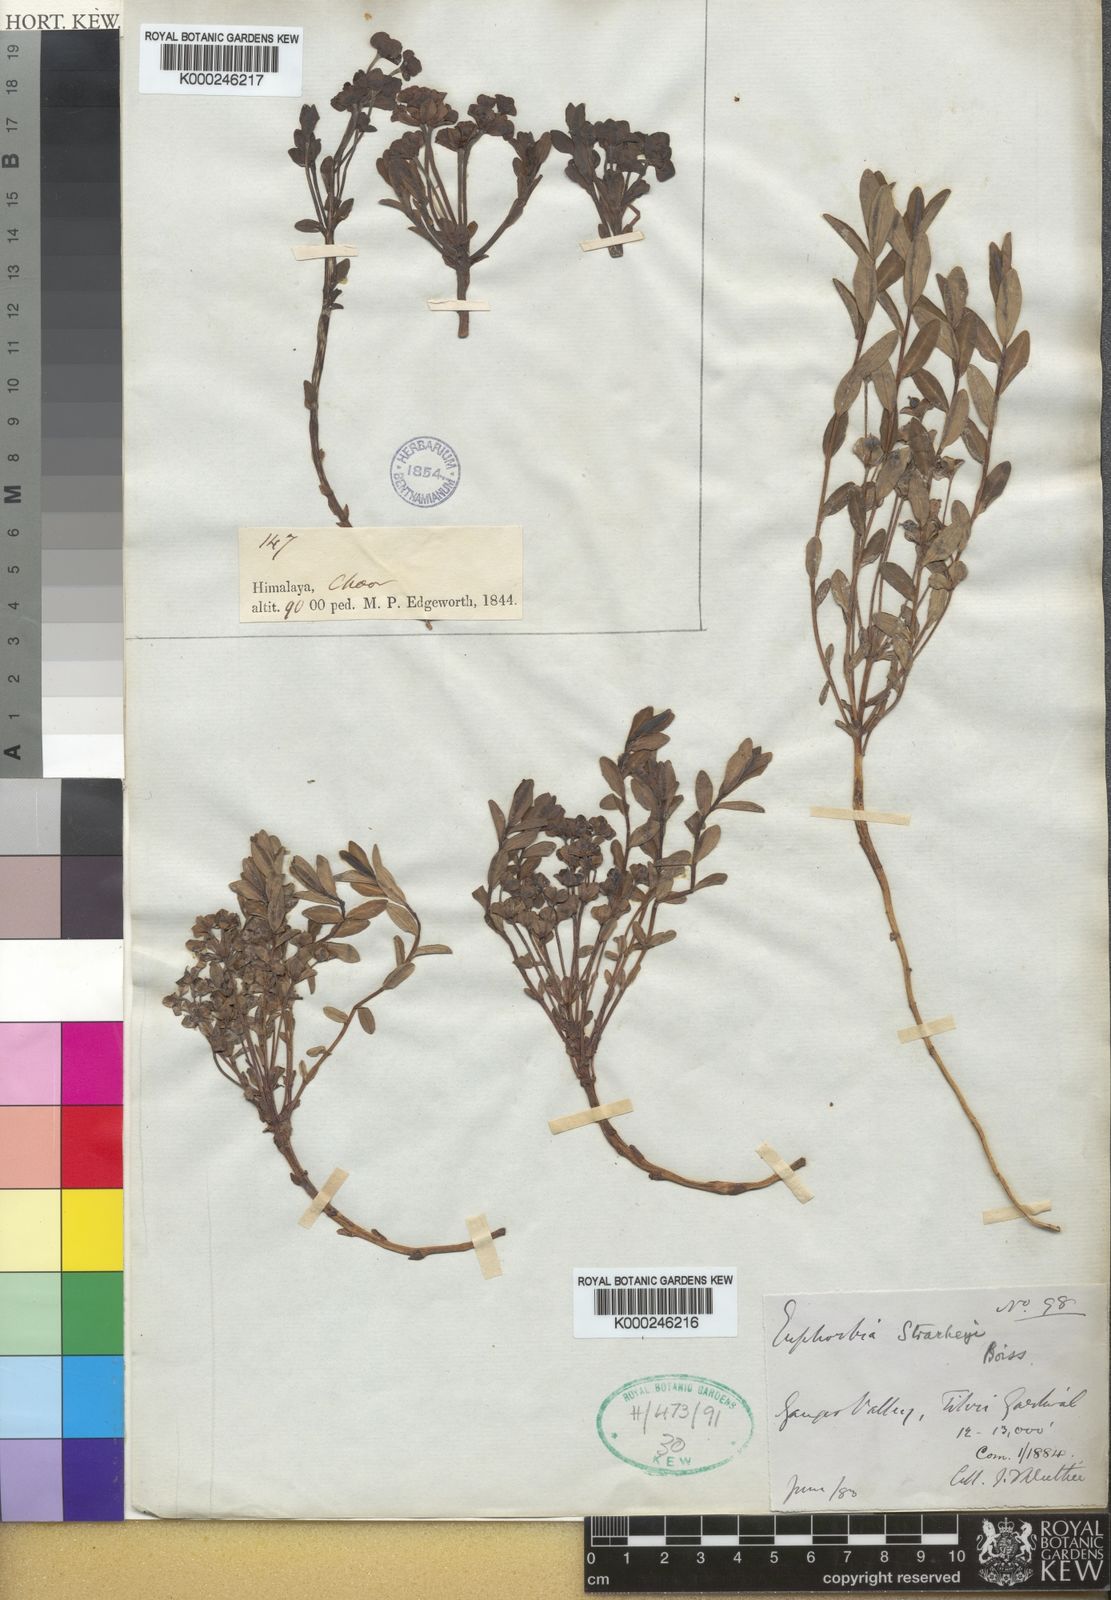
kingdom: Plantae
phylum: Tracheophyta
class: Magnoliopsida
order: Malpighiales
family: Euphorbiaceae
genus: Euphorbia
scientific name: Euphorbia stracheyi
